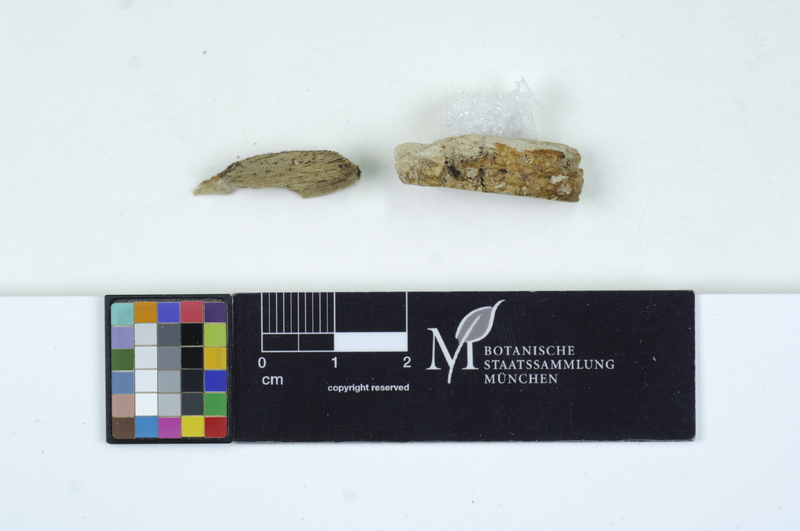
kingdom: Plantae
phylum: Tracheophyta
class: Magnoliopsida
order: Fagales
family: Fagaceae
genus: Fagus
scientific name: Fagus sylvatica
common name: Beech
